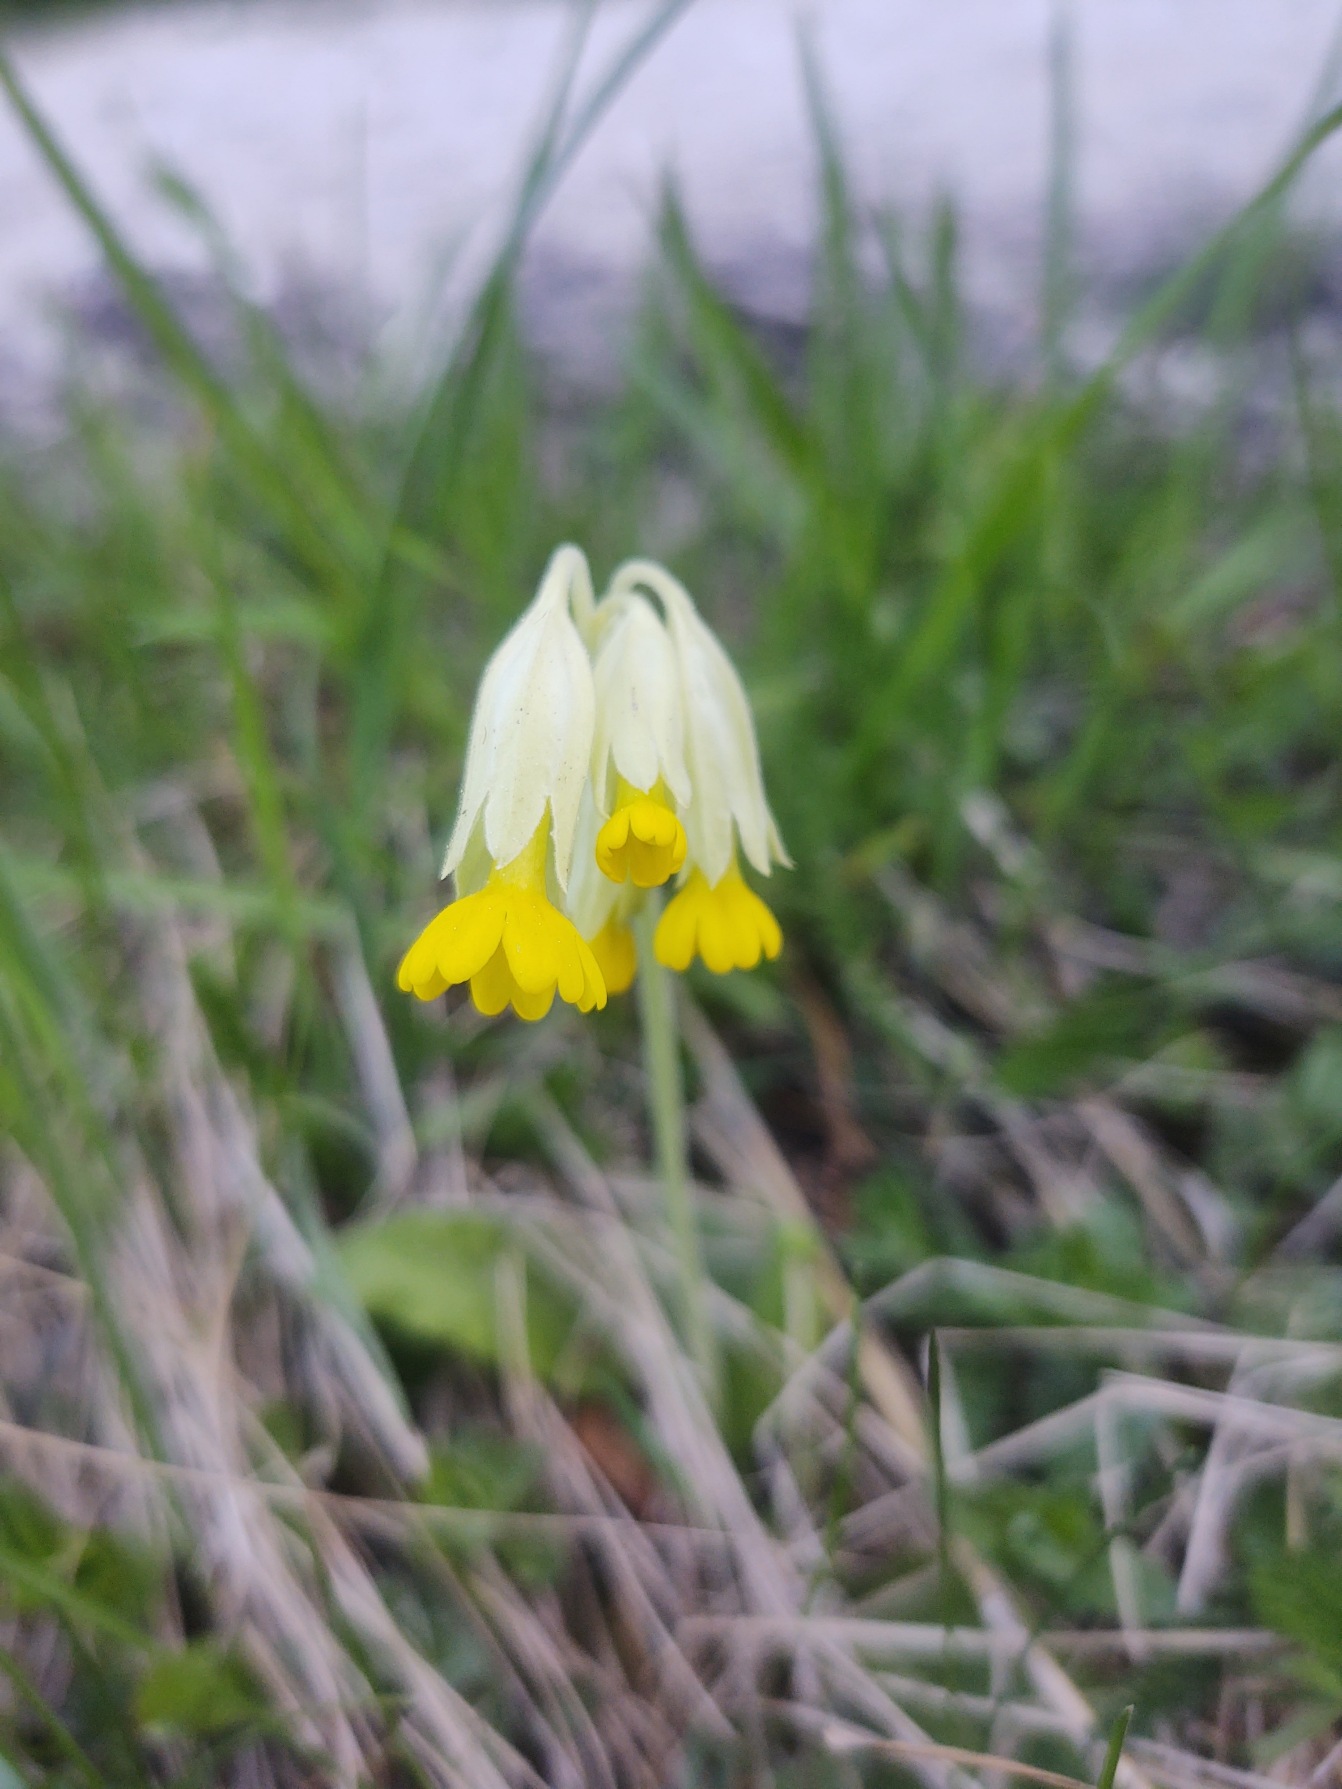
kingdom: Plantae
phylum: Tracheophyta
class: Magnoliopsida
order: Ericales
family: Primulaceae
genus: Primula
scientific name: Primula veris
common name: Hulkravet kodriver
